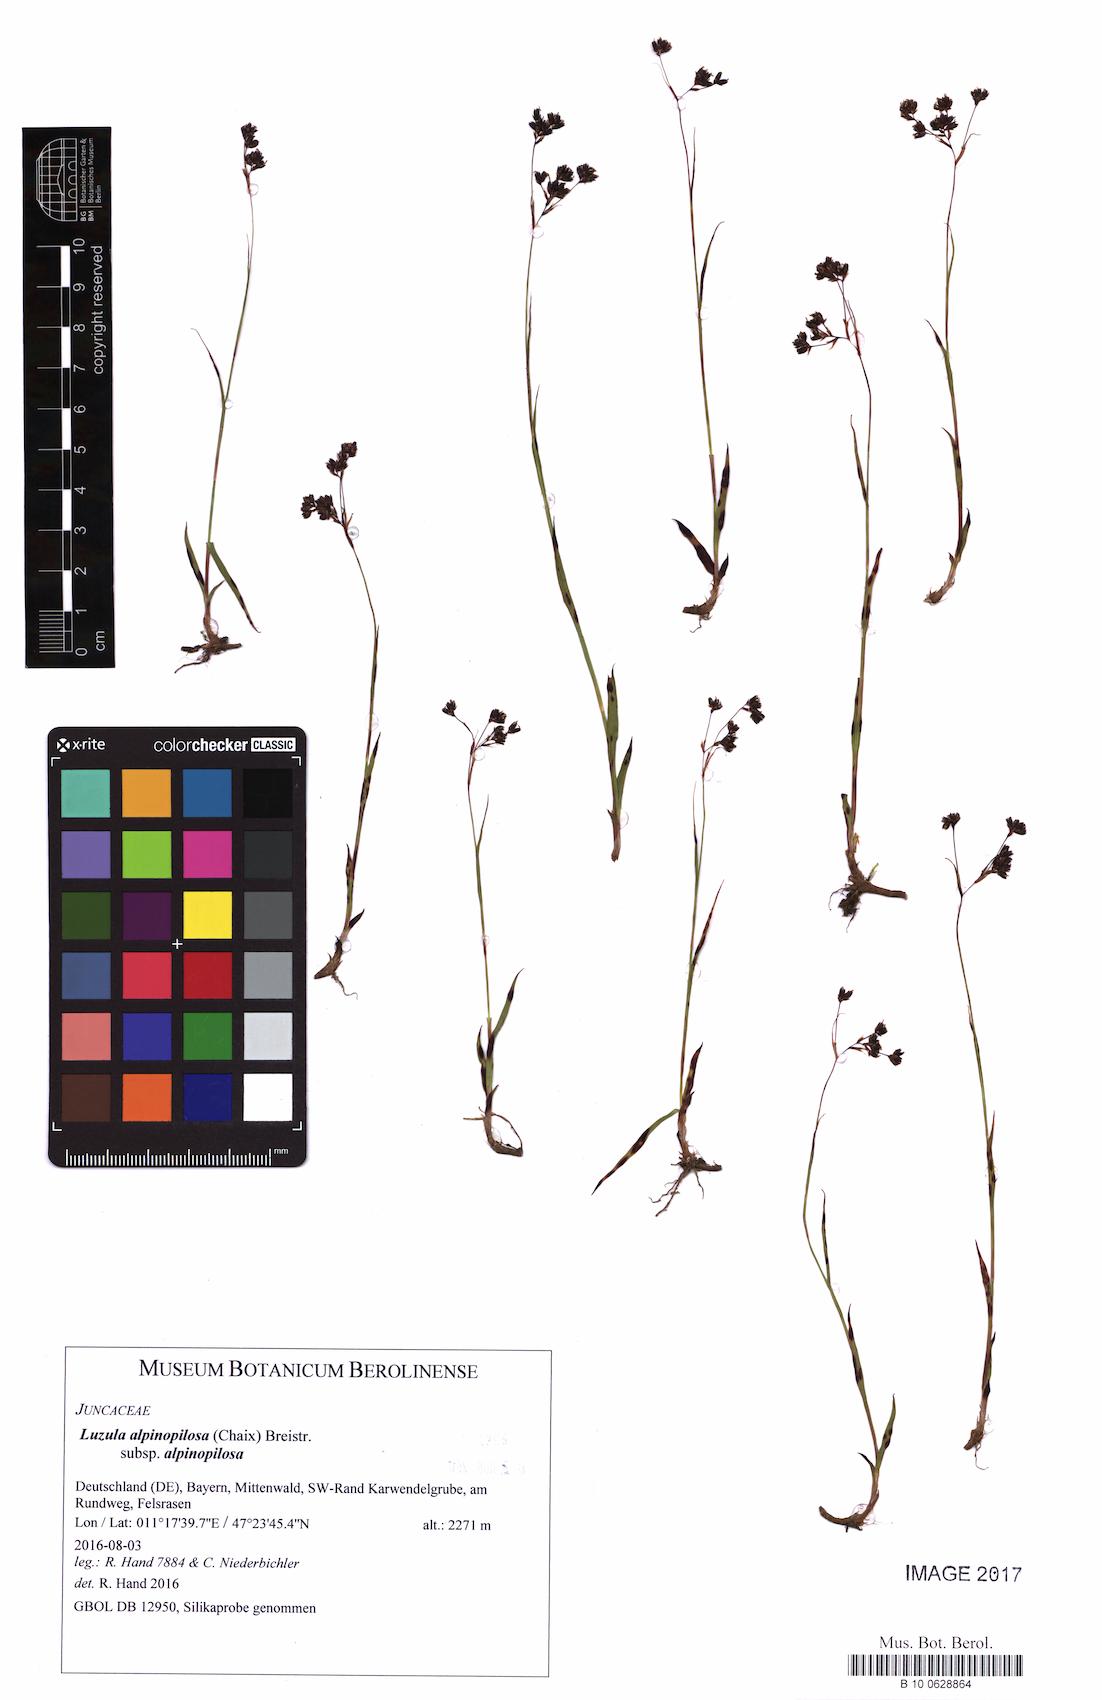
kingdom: Plantae
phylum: Tracheophyta
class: Liliopsida
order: Poales
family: Juncaceae
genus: Luzula
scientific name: Luzula alpinopilosa
